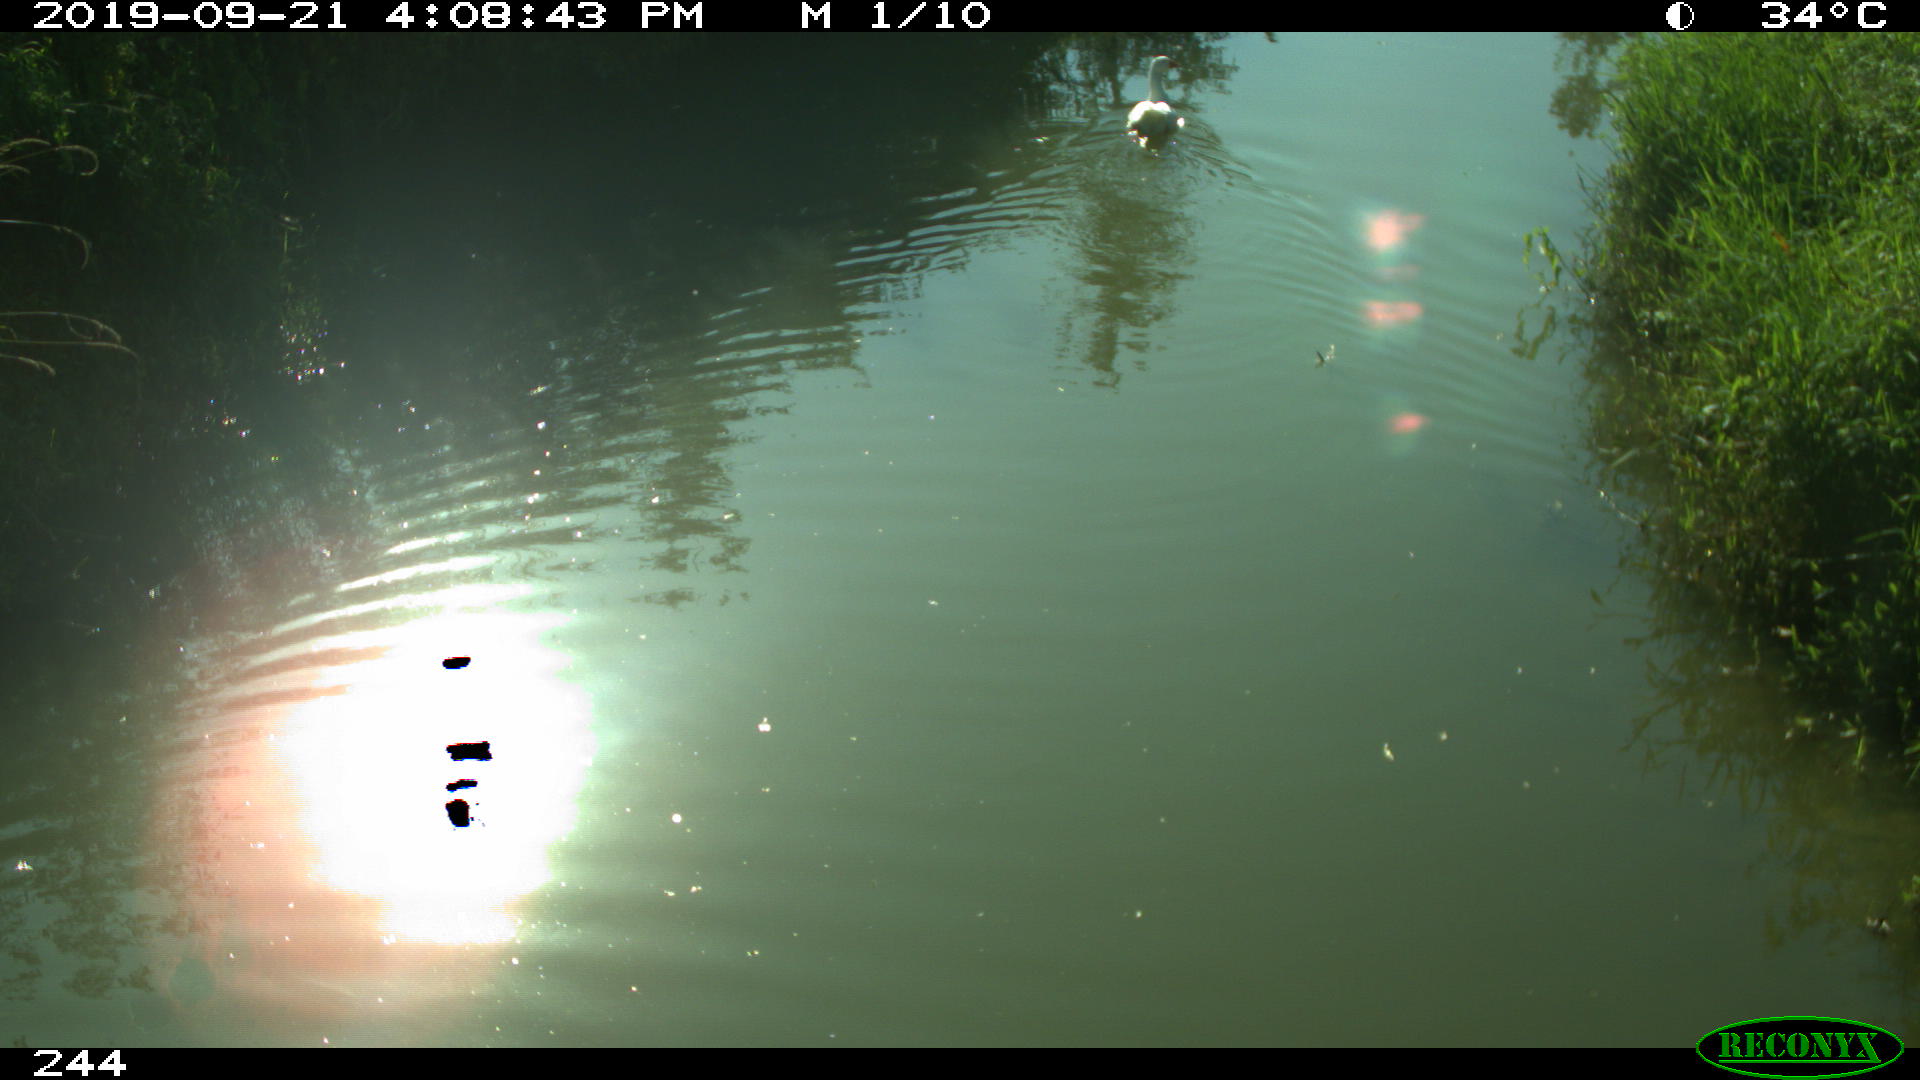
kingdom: Animalia
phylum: Chordata
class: Aves
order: Anseriformes
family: Anatidae
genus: Anser
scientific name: Anser anser
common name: Greylag goose
